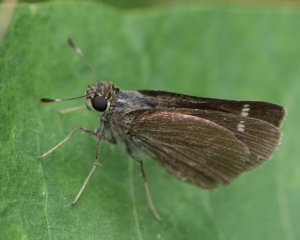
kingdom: Animalia
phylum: Arthropoda
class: Insecta
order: Lepidoptera
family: Hesperiidae
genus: Vernia
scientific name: Vernia verna
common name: Little Glassywing
